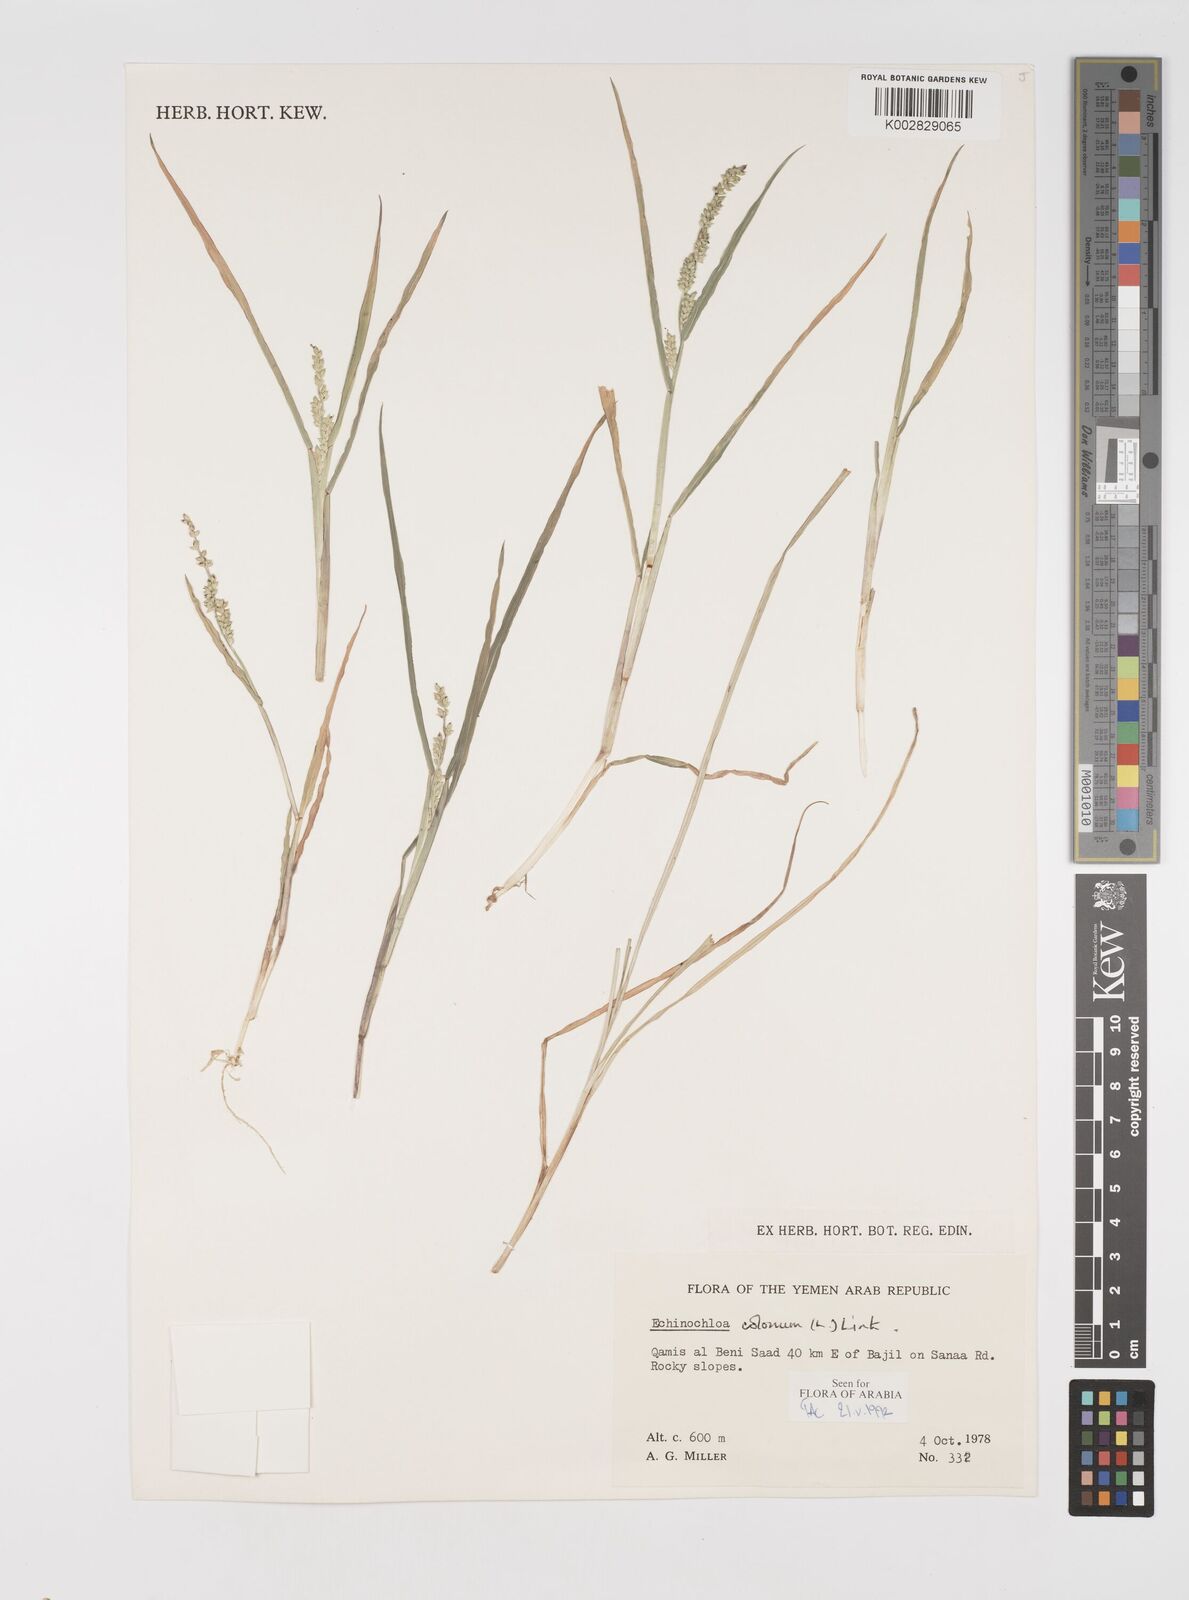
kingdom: Plantae
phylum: Tracheophyta
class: Liliopsida
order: Poales
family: Poaceae
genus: Echinochloa
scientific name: Echinochloa colonum
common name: Jungle rice
